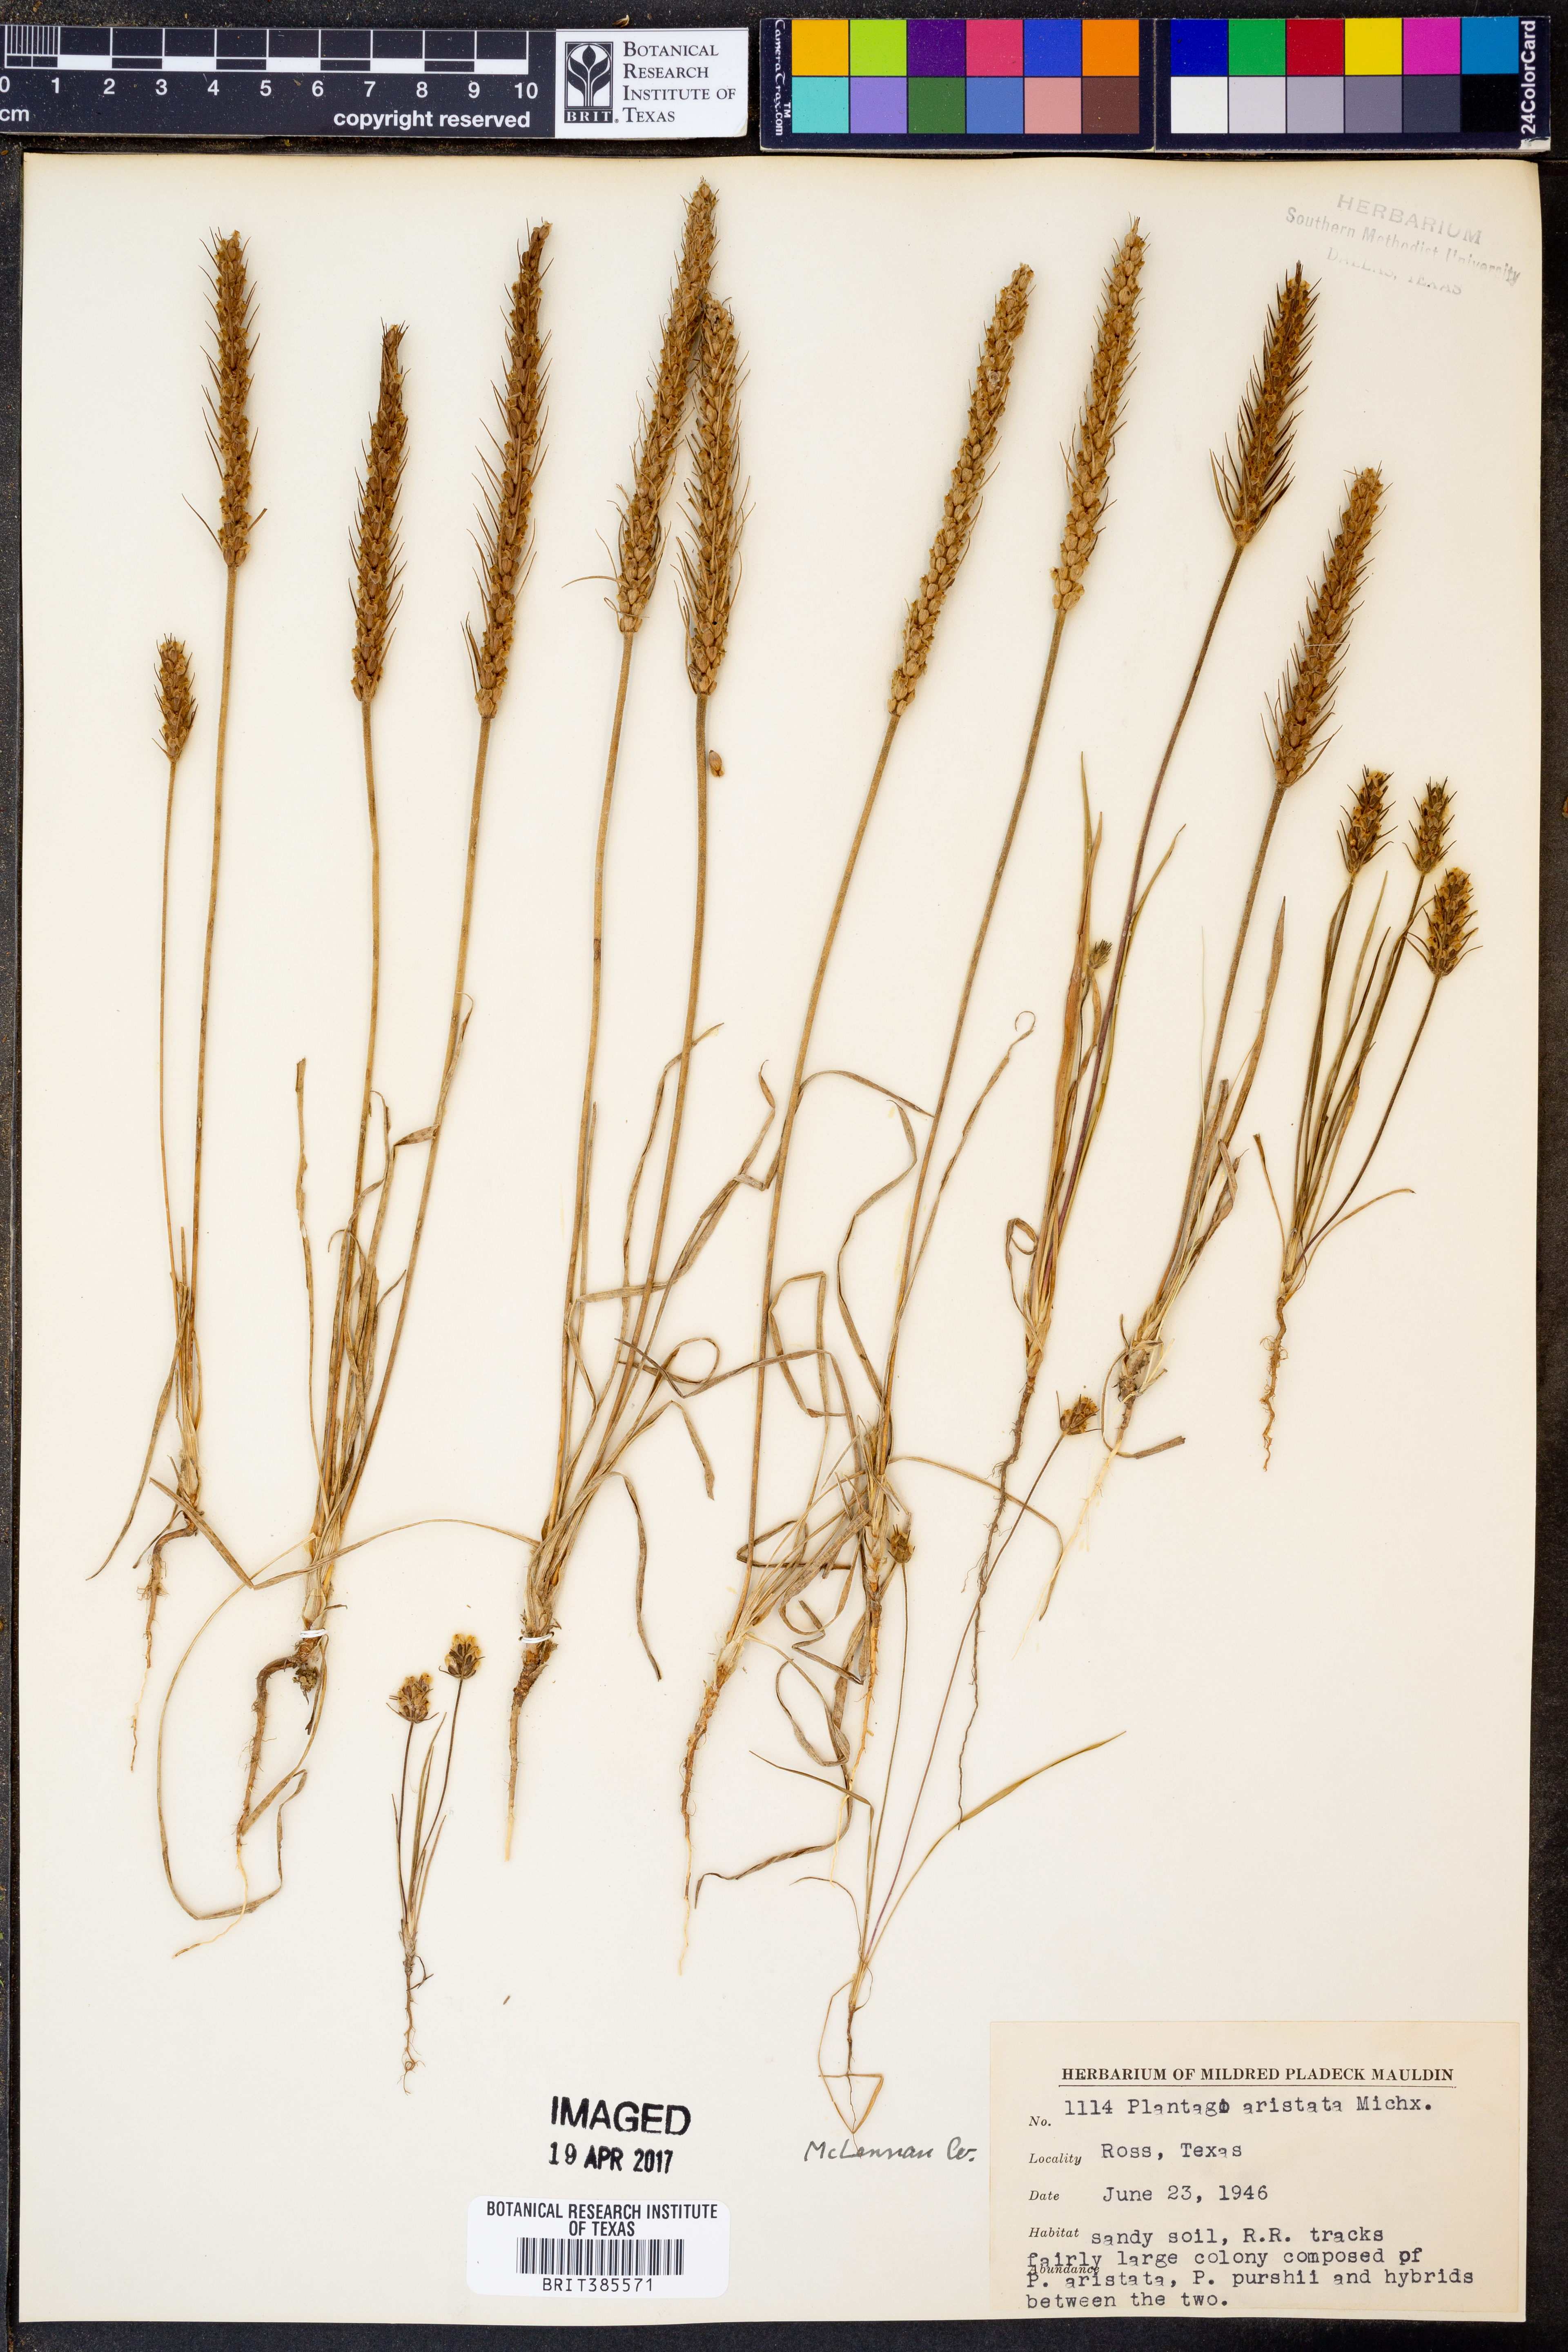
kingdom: Plantae
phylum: Tracheophyta
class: Magnoliopsida
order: Lamiales
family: Plantaginaceae
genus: Plantago
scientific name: Plantago aristata
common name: Bracted plantain
